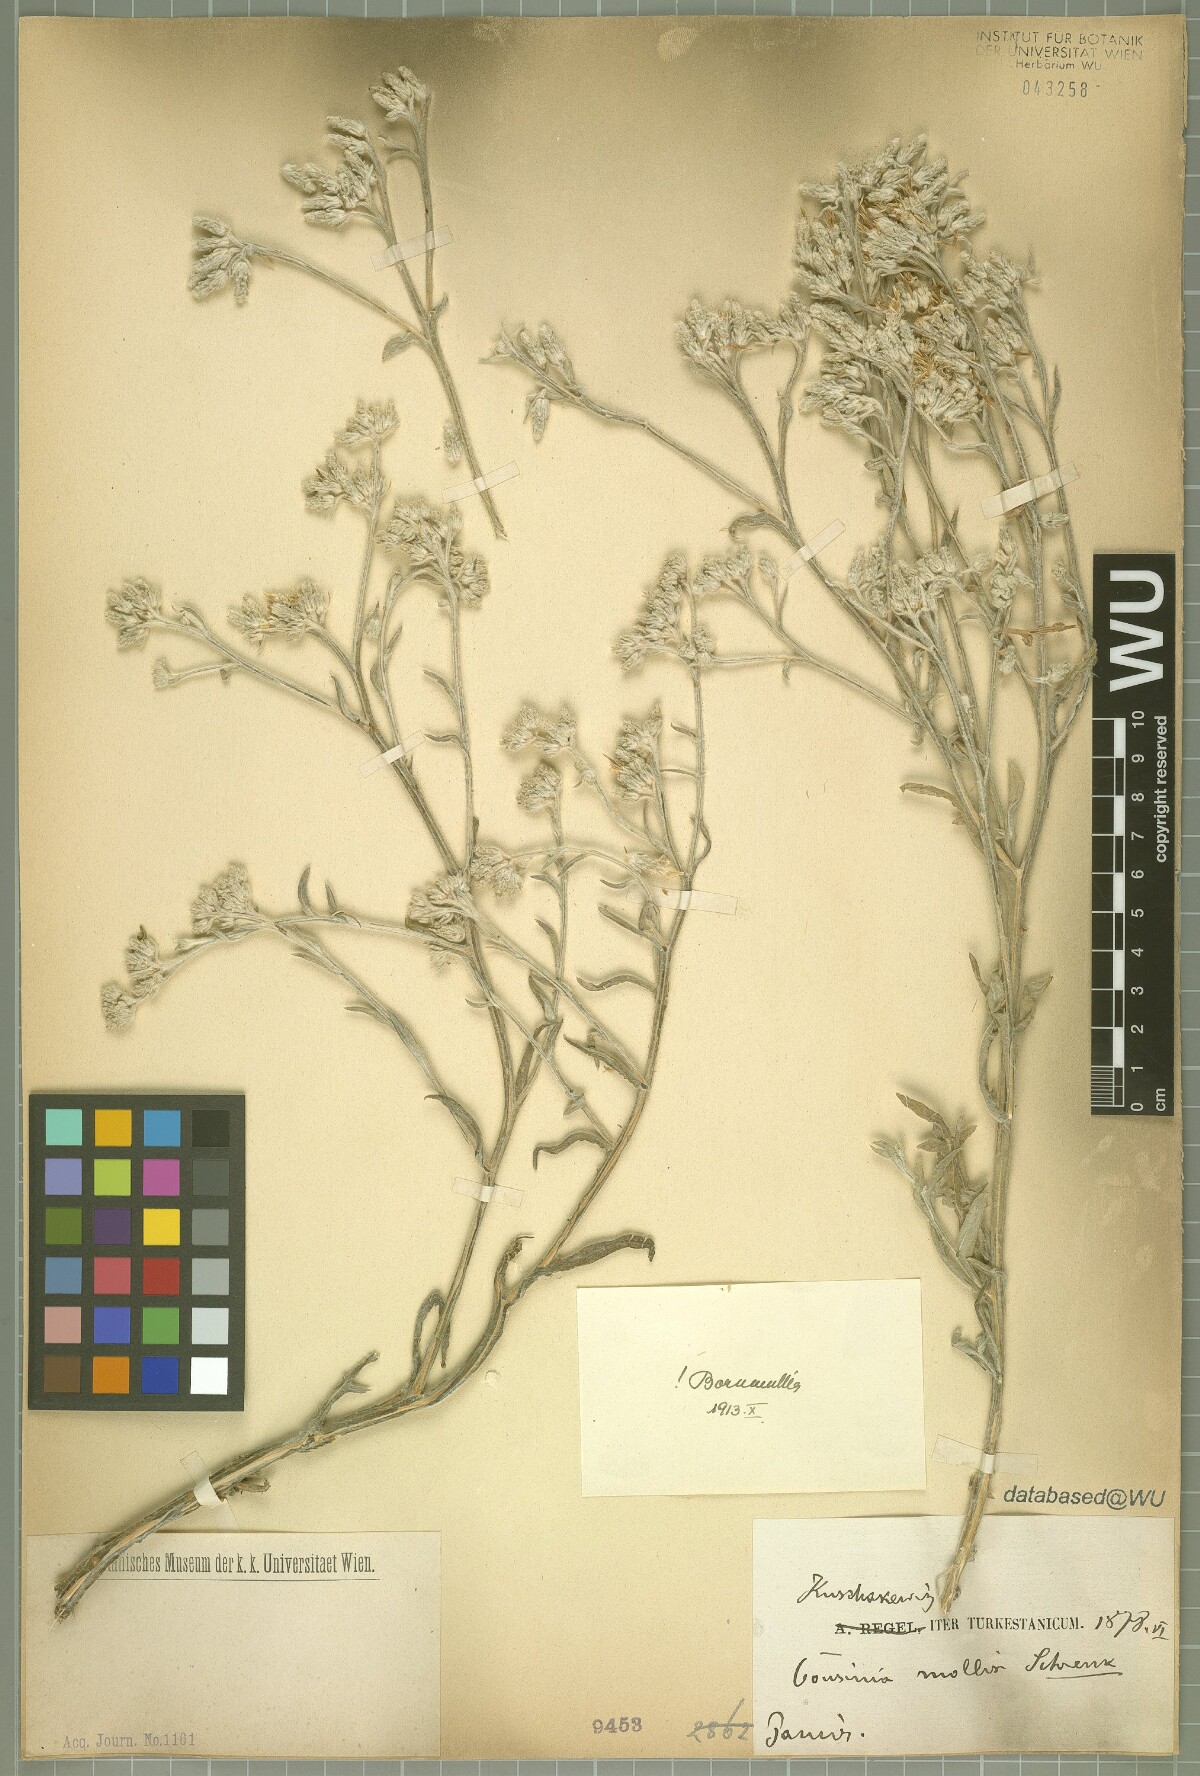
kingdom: Plantae
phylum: Tracheophyta
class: Magnoliopsida
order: Asterales
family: Asteraceae
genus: Cousinia
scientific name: Cousinia mollis
